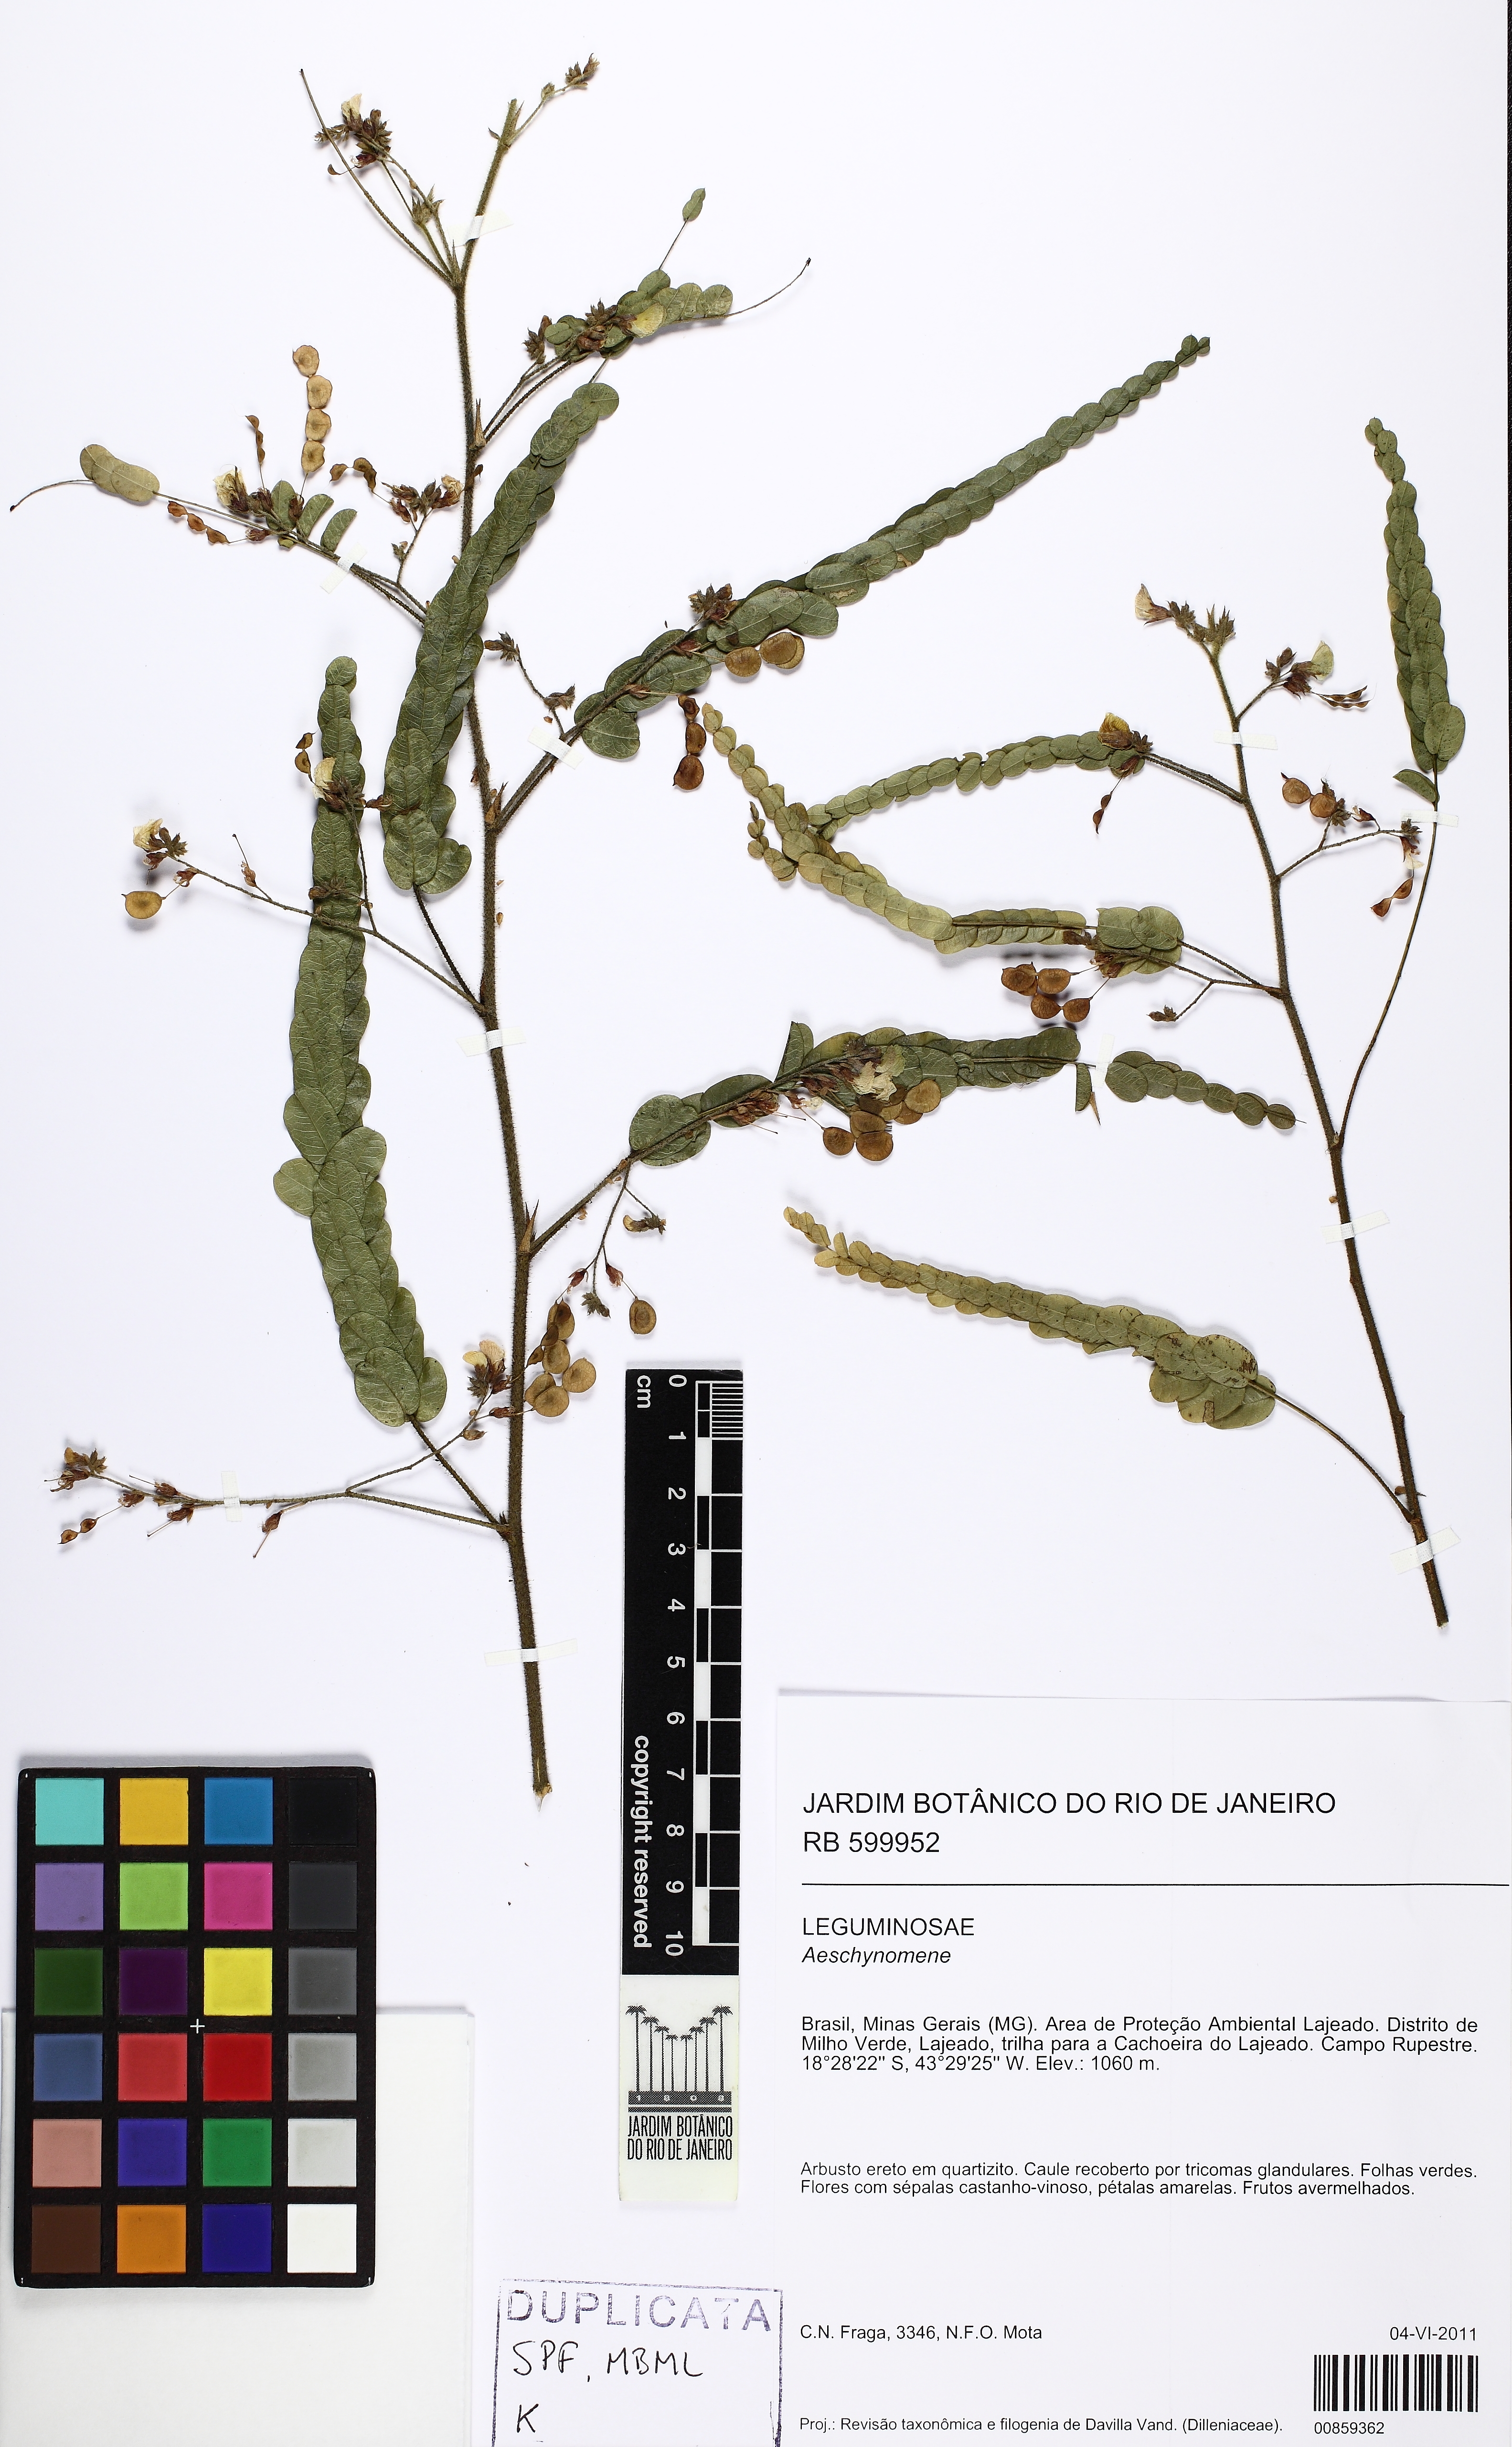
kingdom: Plantae
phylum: Tracheophyta
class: Magnoliopsida
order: Fabales
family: Fabaceae
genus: Aeschynomene
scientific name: Aeschynomene
